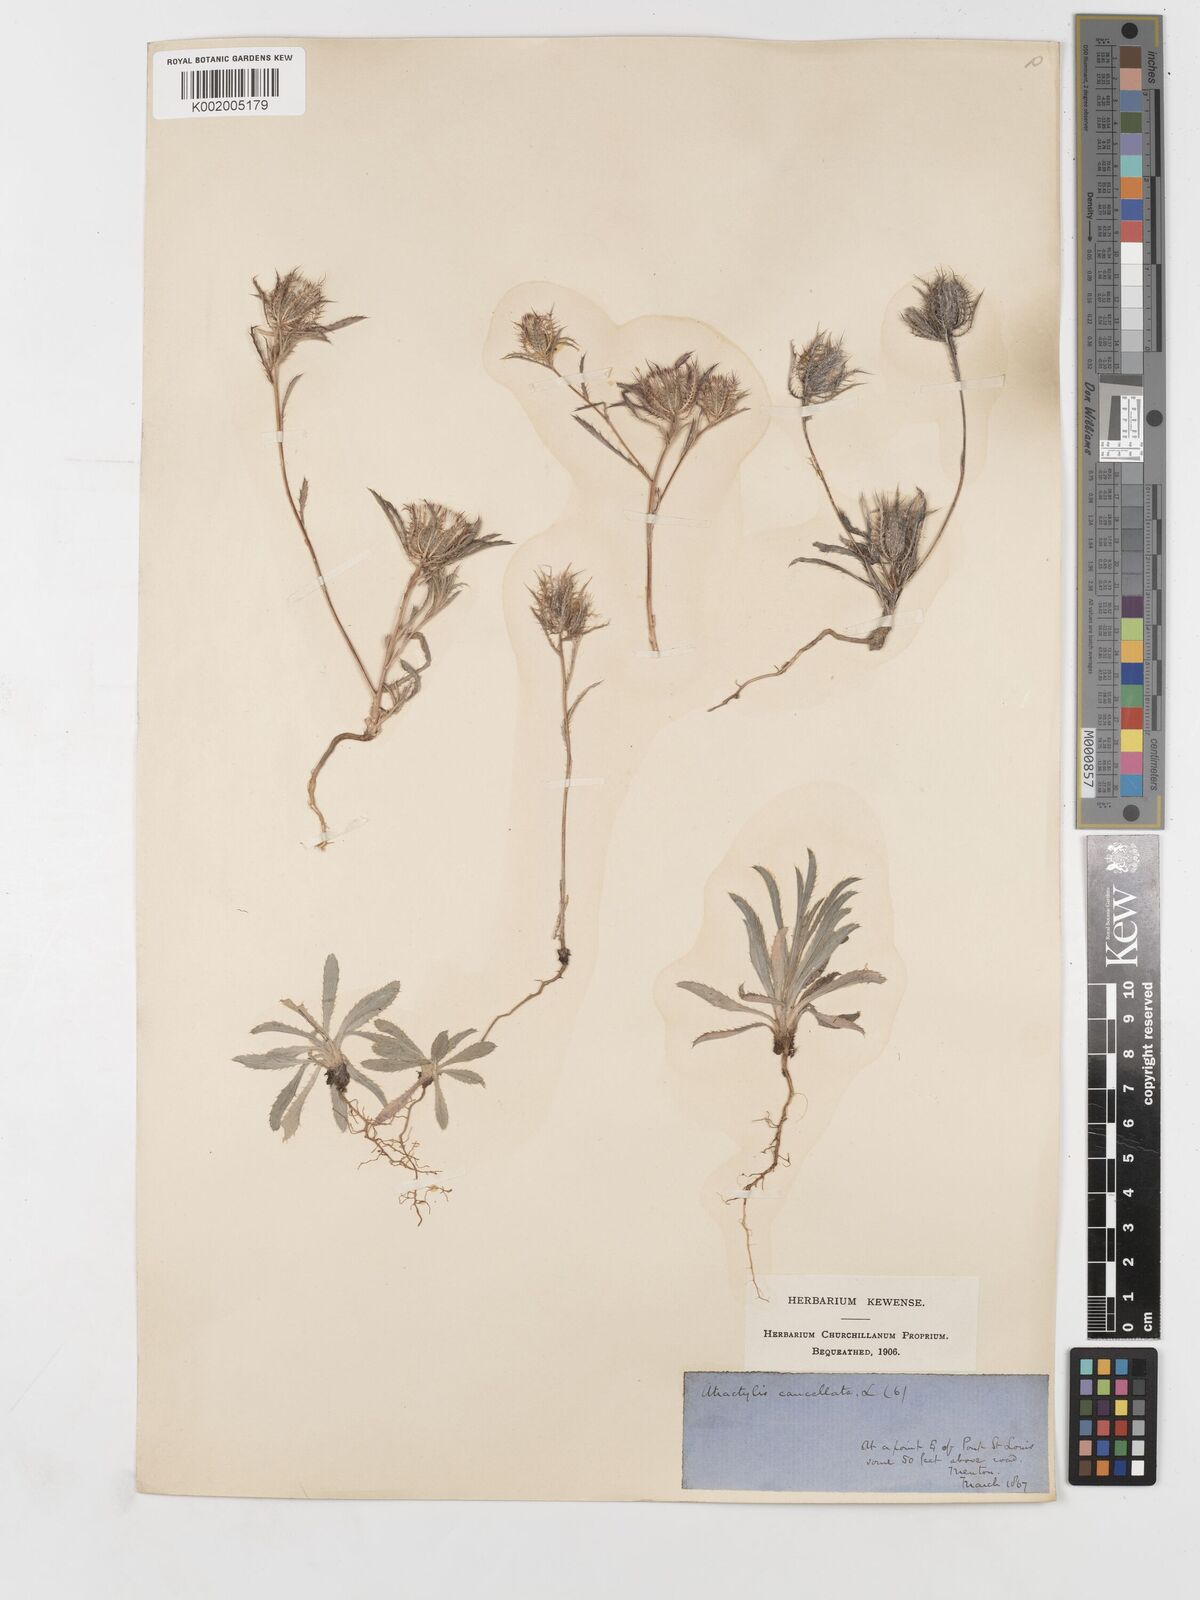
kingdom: Plantae
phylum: Tracheophyta
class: Magnoliopsida
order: Asterales
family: Asteraceae
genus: Atractylis
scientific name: Atractylis cancellata
